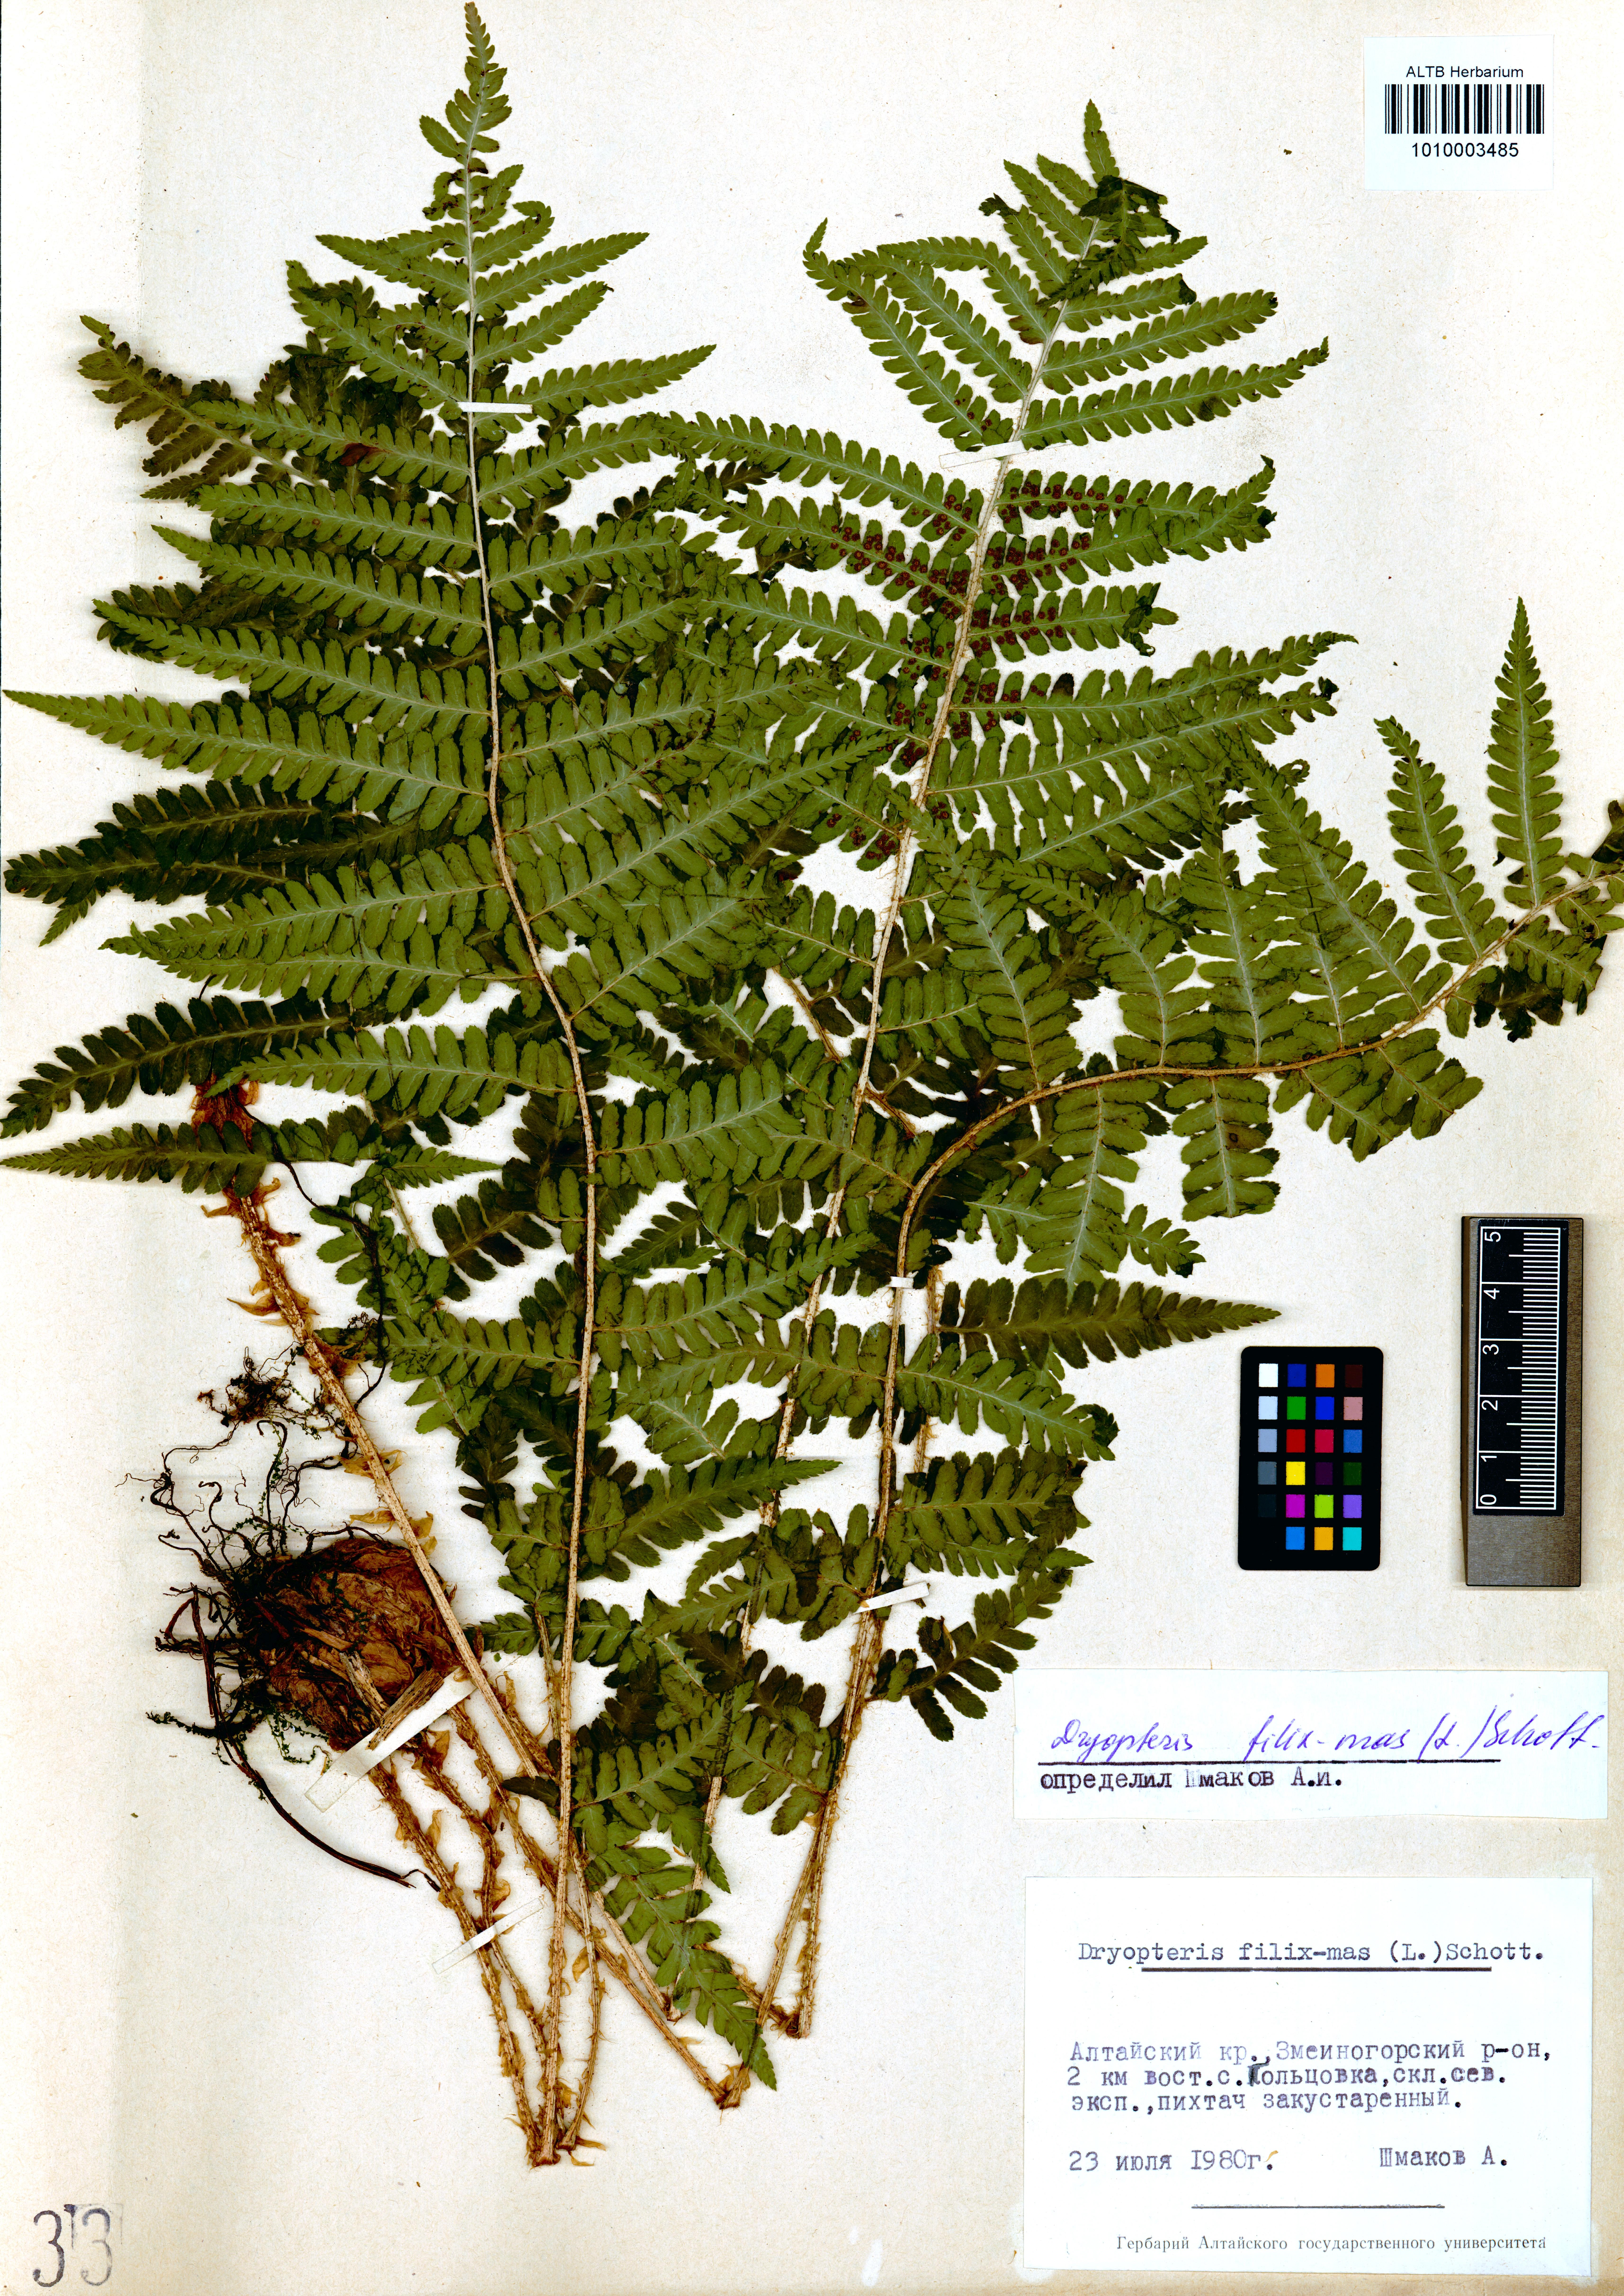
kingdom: Plantae
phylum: Tracheophyta
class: Polypodiopsida
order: Polypodiales
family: Dryopteridaceae
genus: Dryopteris
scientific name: Dryopteris filix-mas
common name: Male fern
